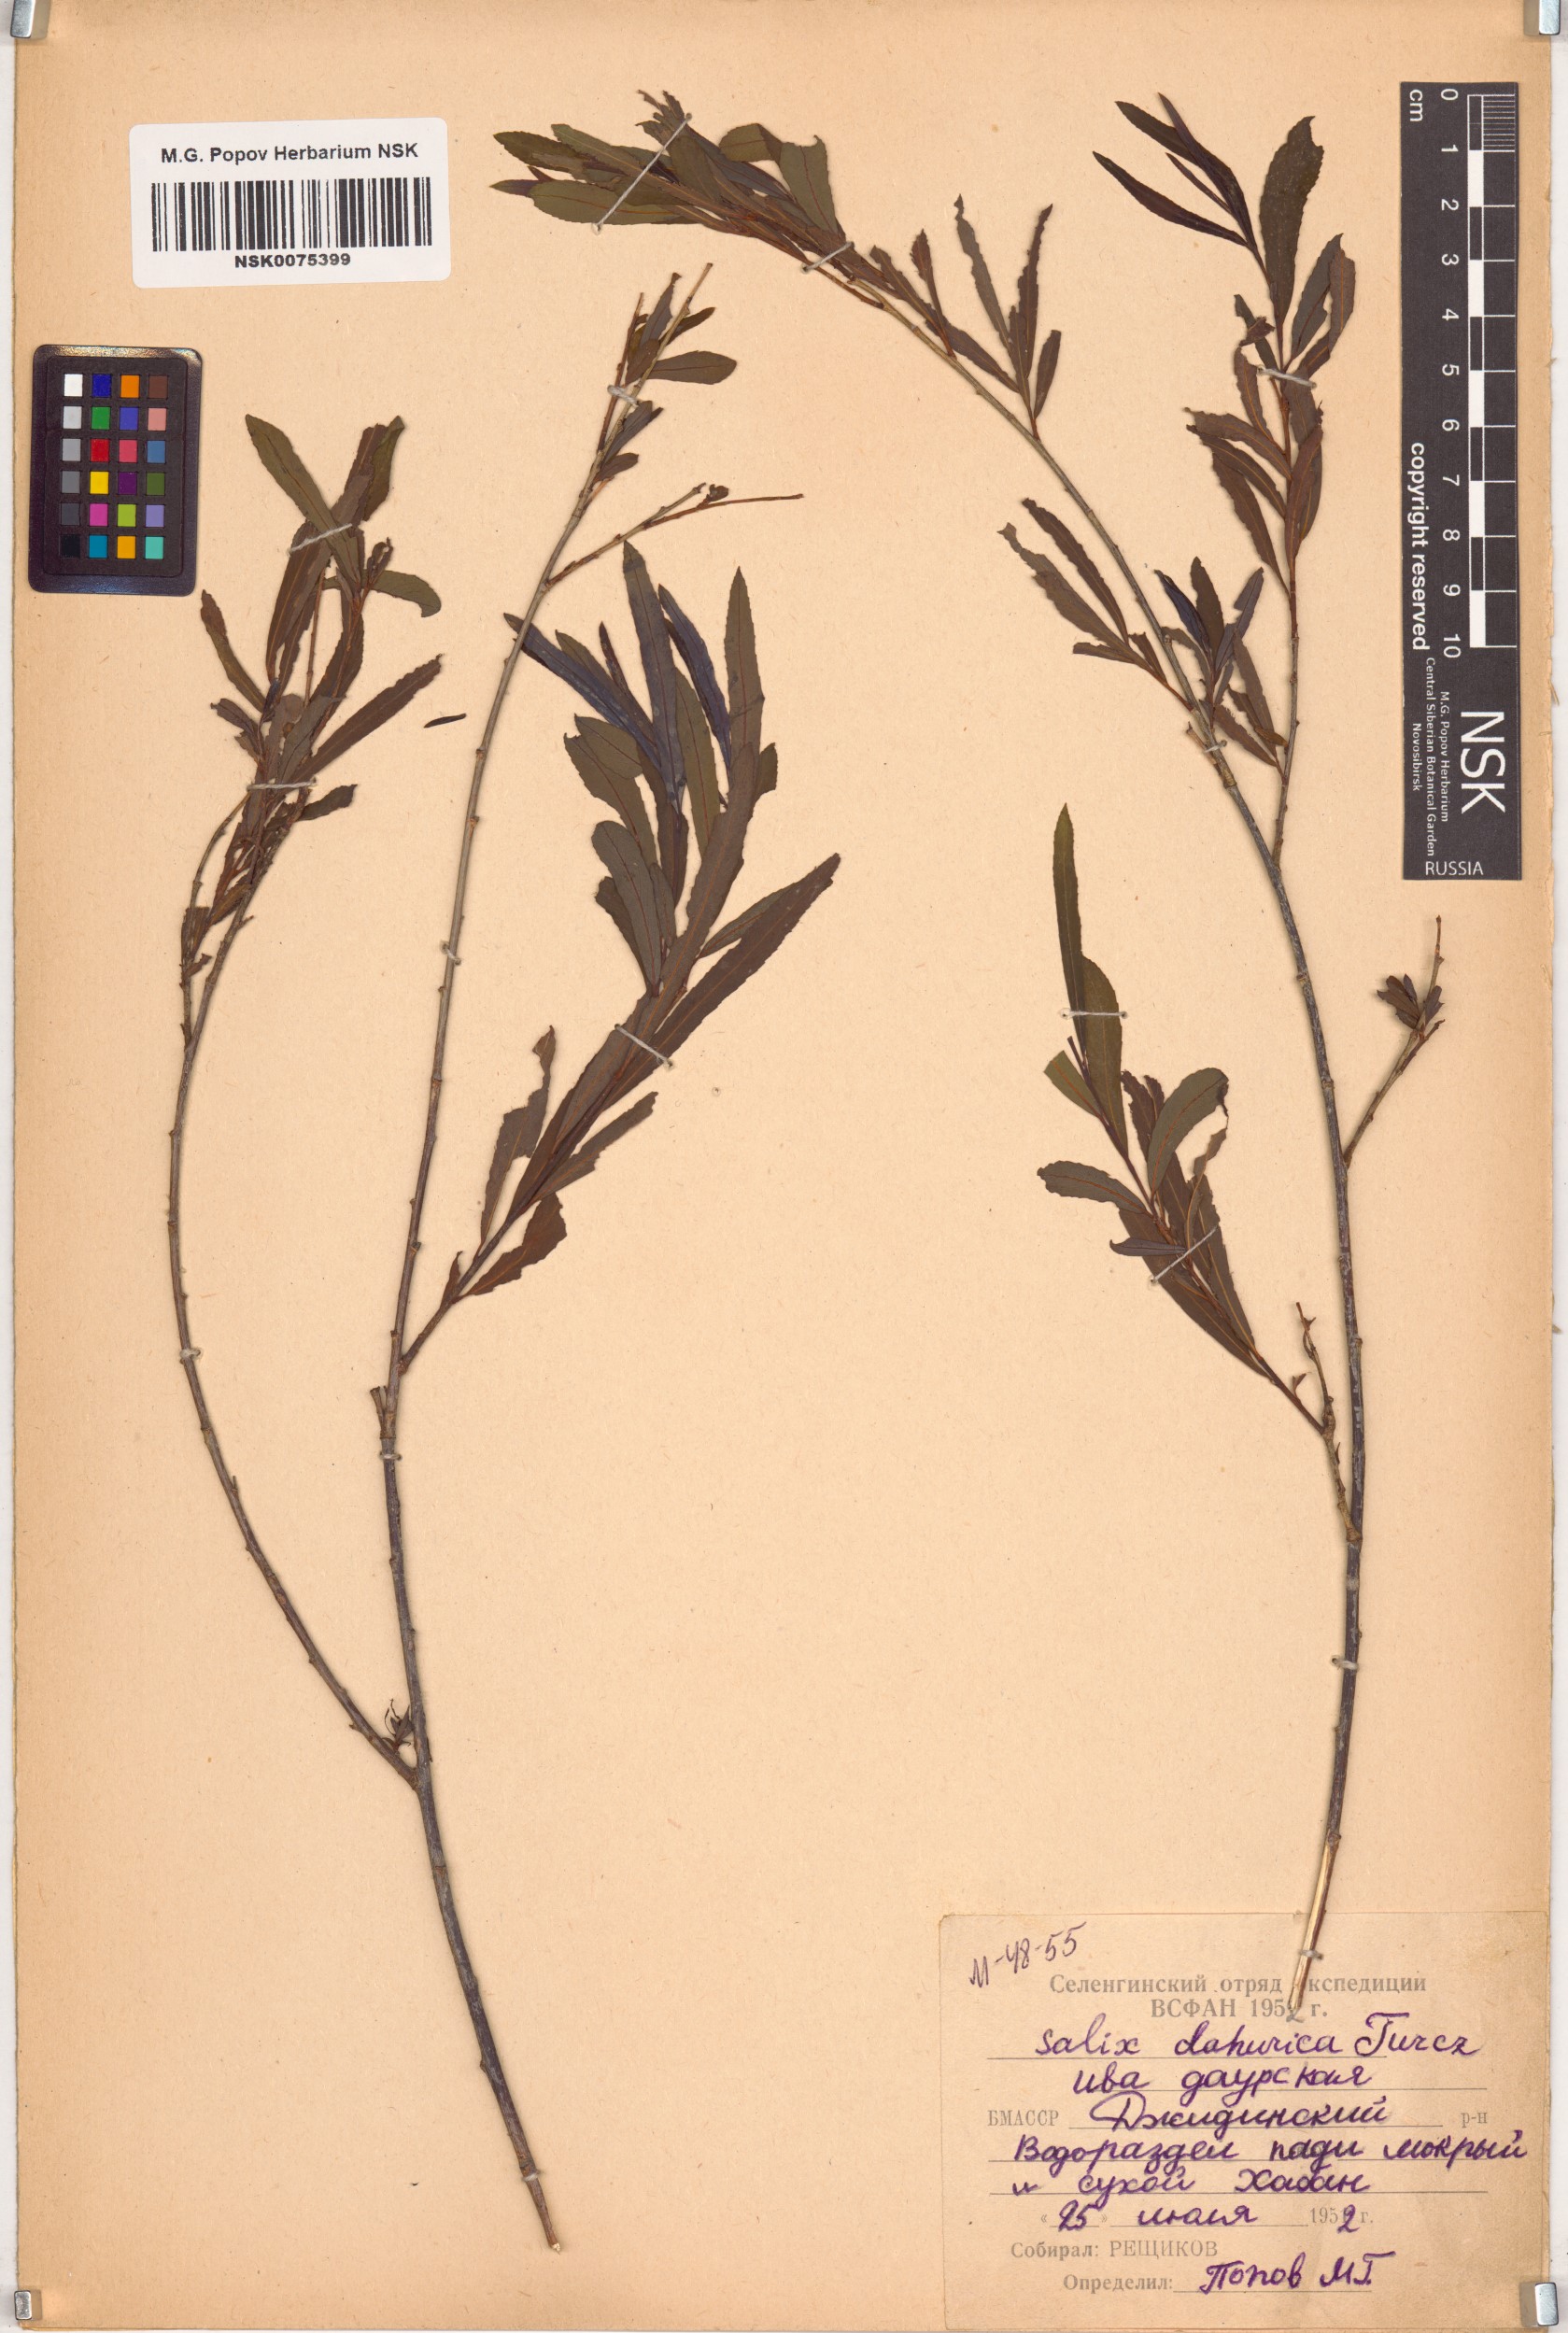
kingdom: Plantae
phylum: Tracheophyta
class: Magnoliopsida
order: Malpighiales
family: Salicaceae
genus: Salix
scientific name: Salix
